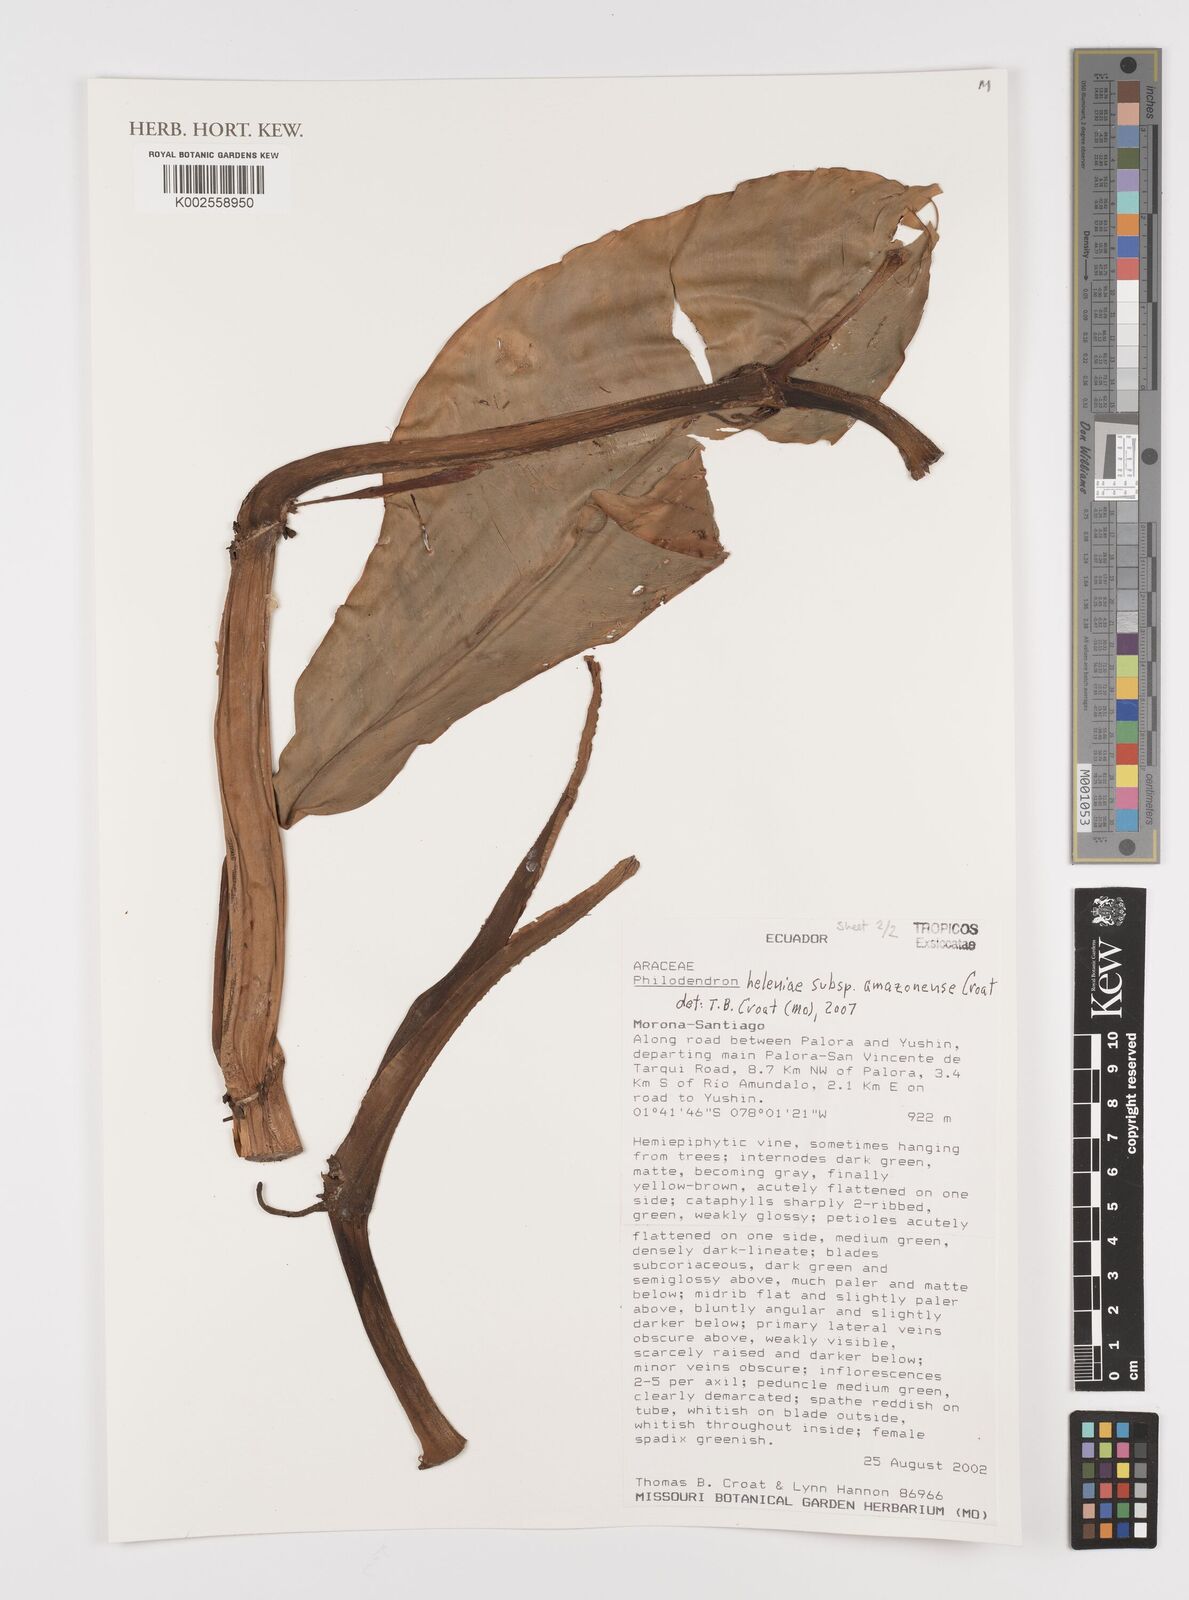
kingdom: Plantae
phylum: Tracheophyta
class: Liliopsida
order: Alismatales
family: Araceae
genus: Philodendron
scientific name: Philodendron heleniae
